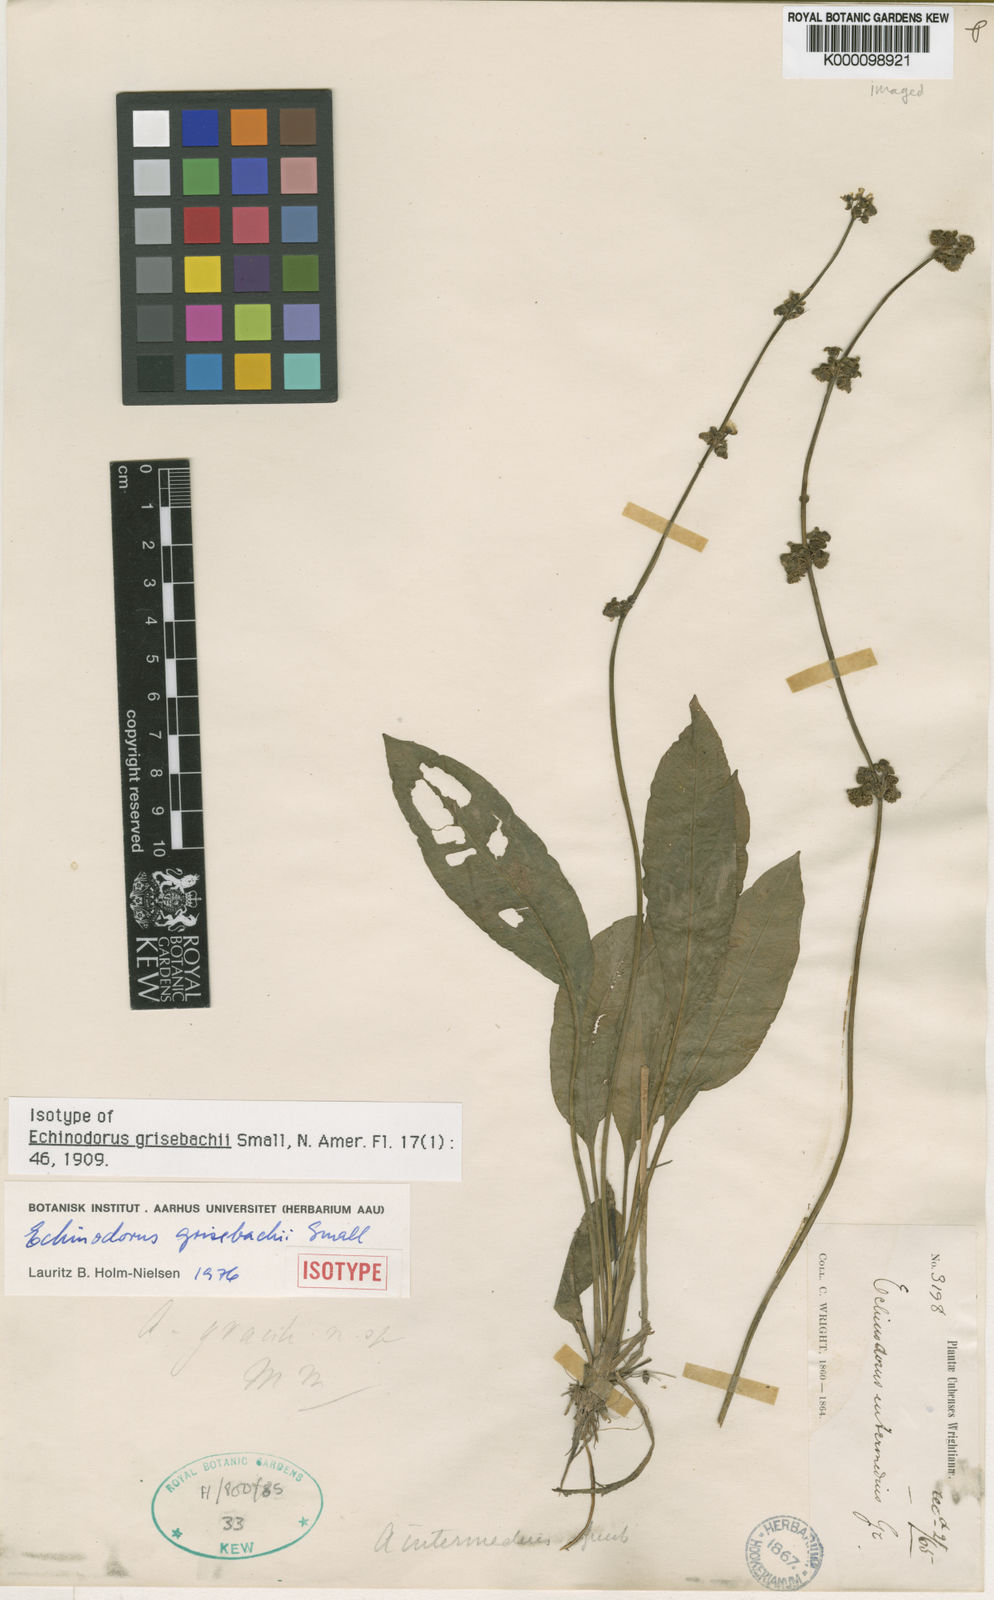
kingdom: Plantae
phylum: Tracheophyta
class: Liliopsida
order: Alismatales
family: Alismataceae
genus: Aquarius
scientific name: Aquarius grisebachii
